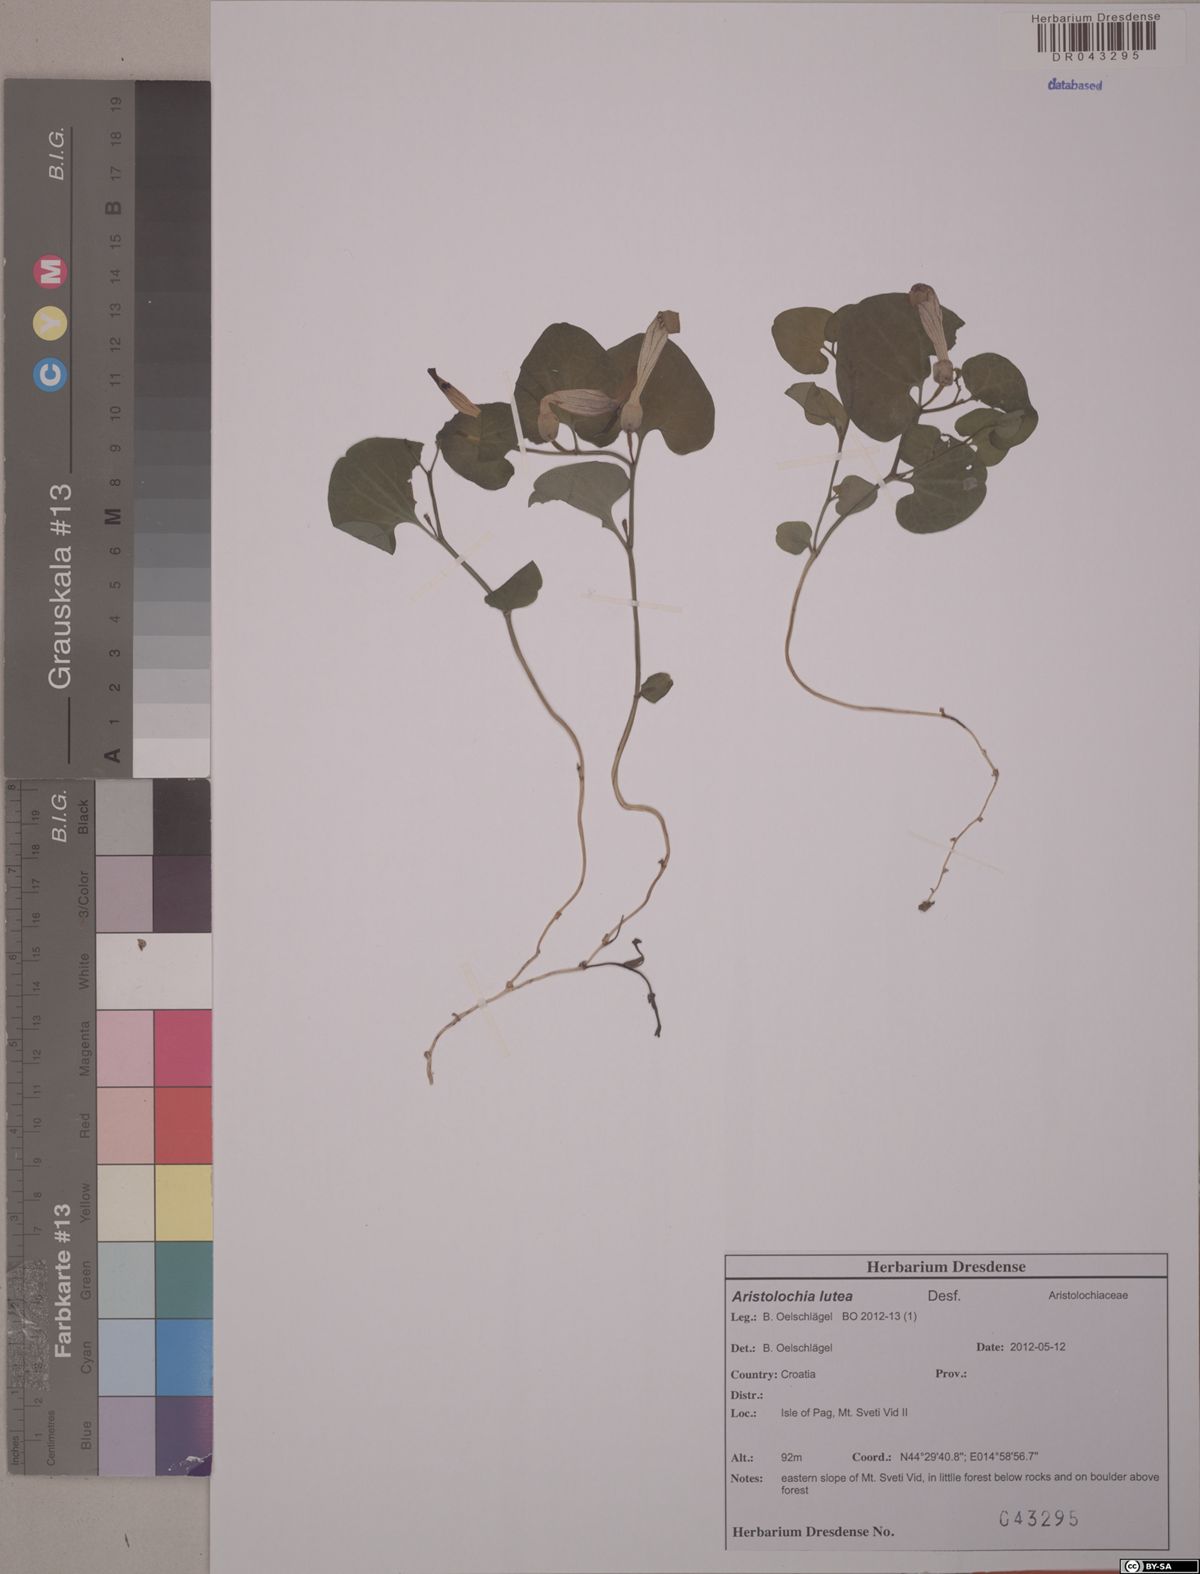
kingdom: Plantae
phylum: Tracheophyta
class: Magnoliopsida
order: Piperales
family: Aristolochiaceae
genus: Aristolochia
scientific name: Aristolochia lutea
